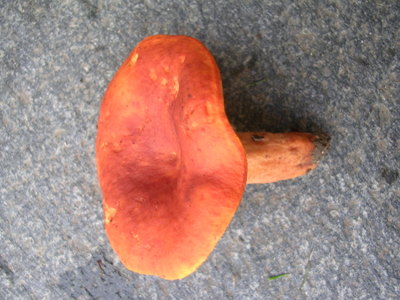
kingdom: Fungi
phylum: Basidiomycota
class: Agaricomycetes
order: Russulales
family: Russulaceae
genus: Lactarius
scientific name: Lactarius fulvissimus
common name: ræve-mælkehat
